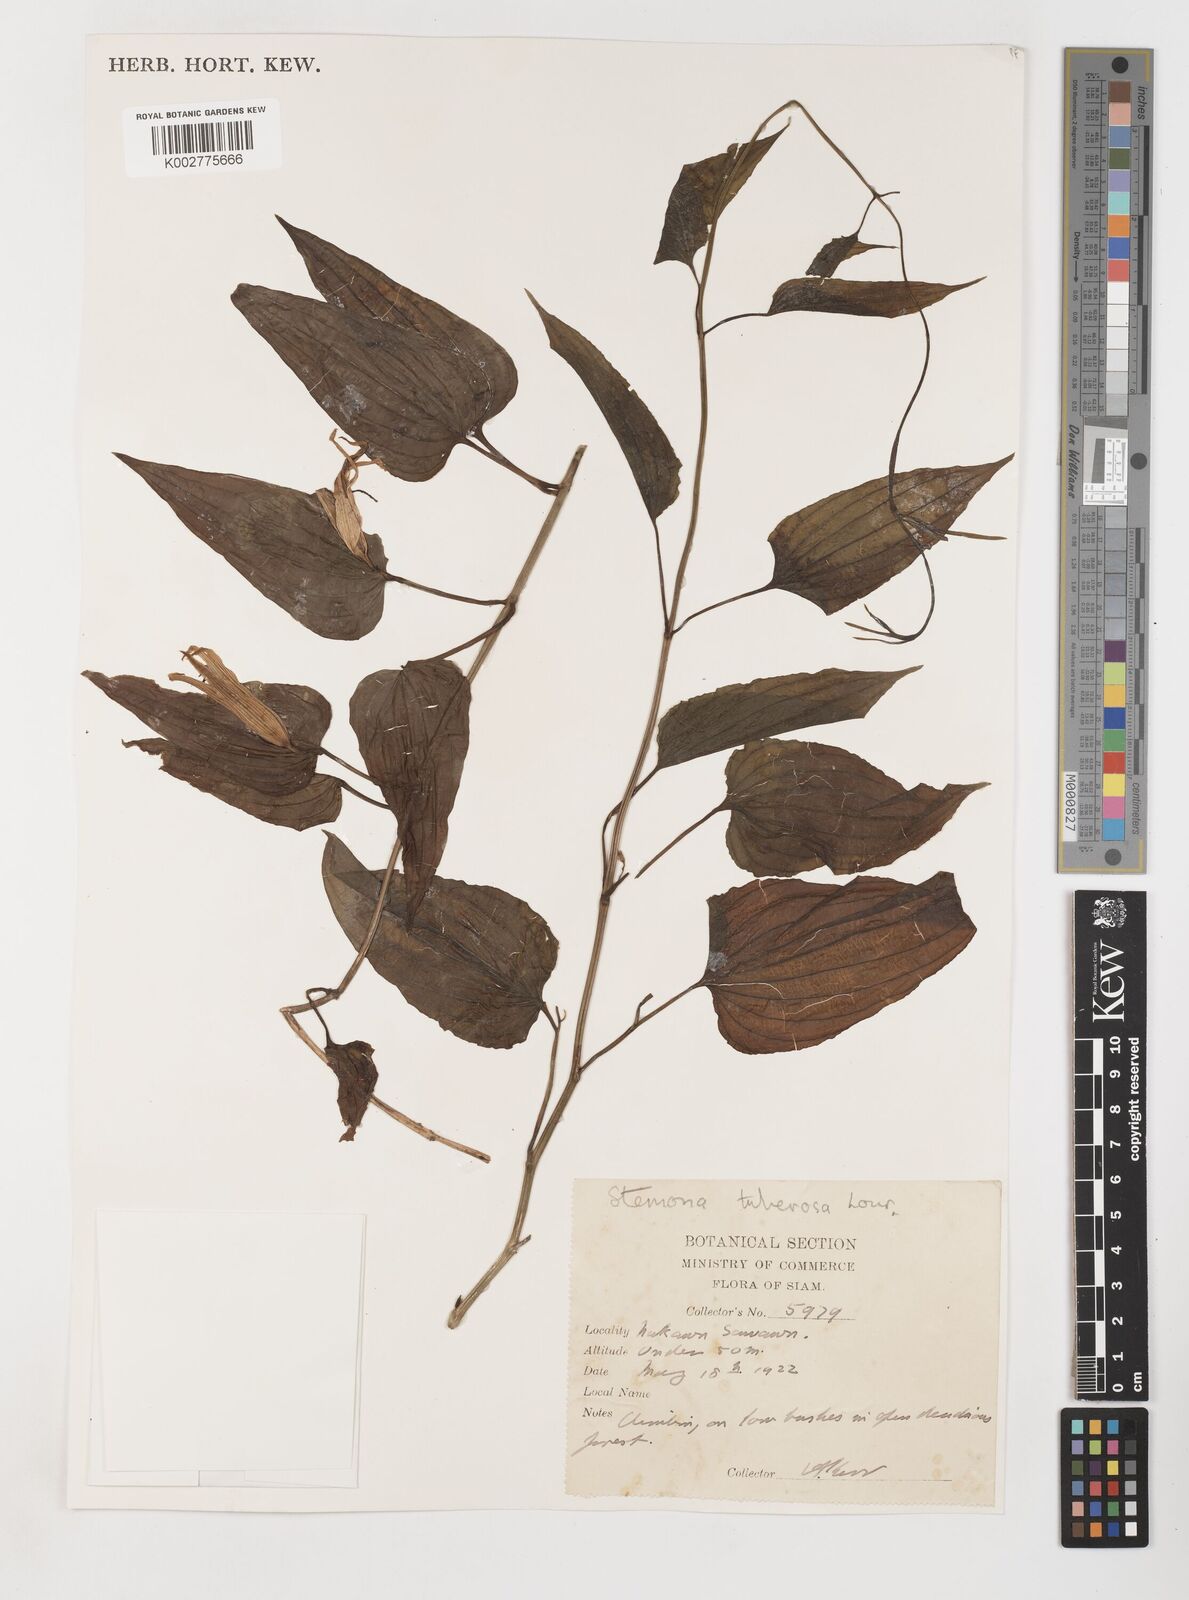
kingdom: Plantae
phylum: Tracheophyta
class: Liliopsida
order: Pandanales
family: Stemonaceae
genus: Stemona
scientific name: Stemona tuberosa
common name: Stemona
